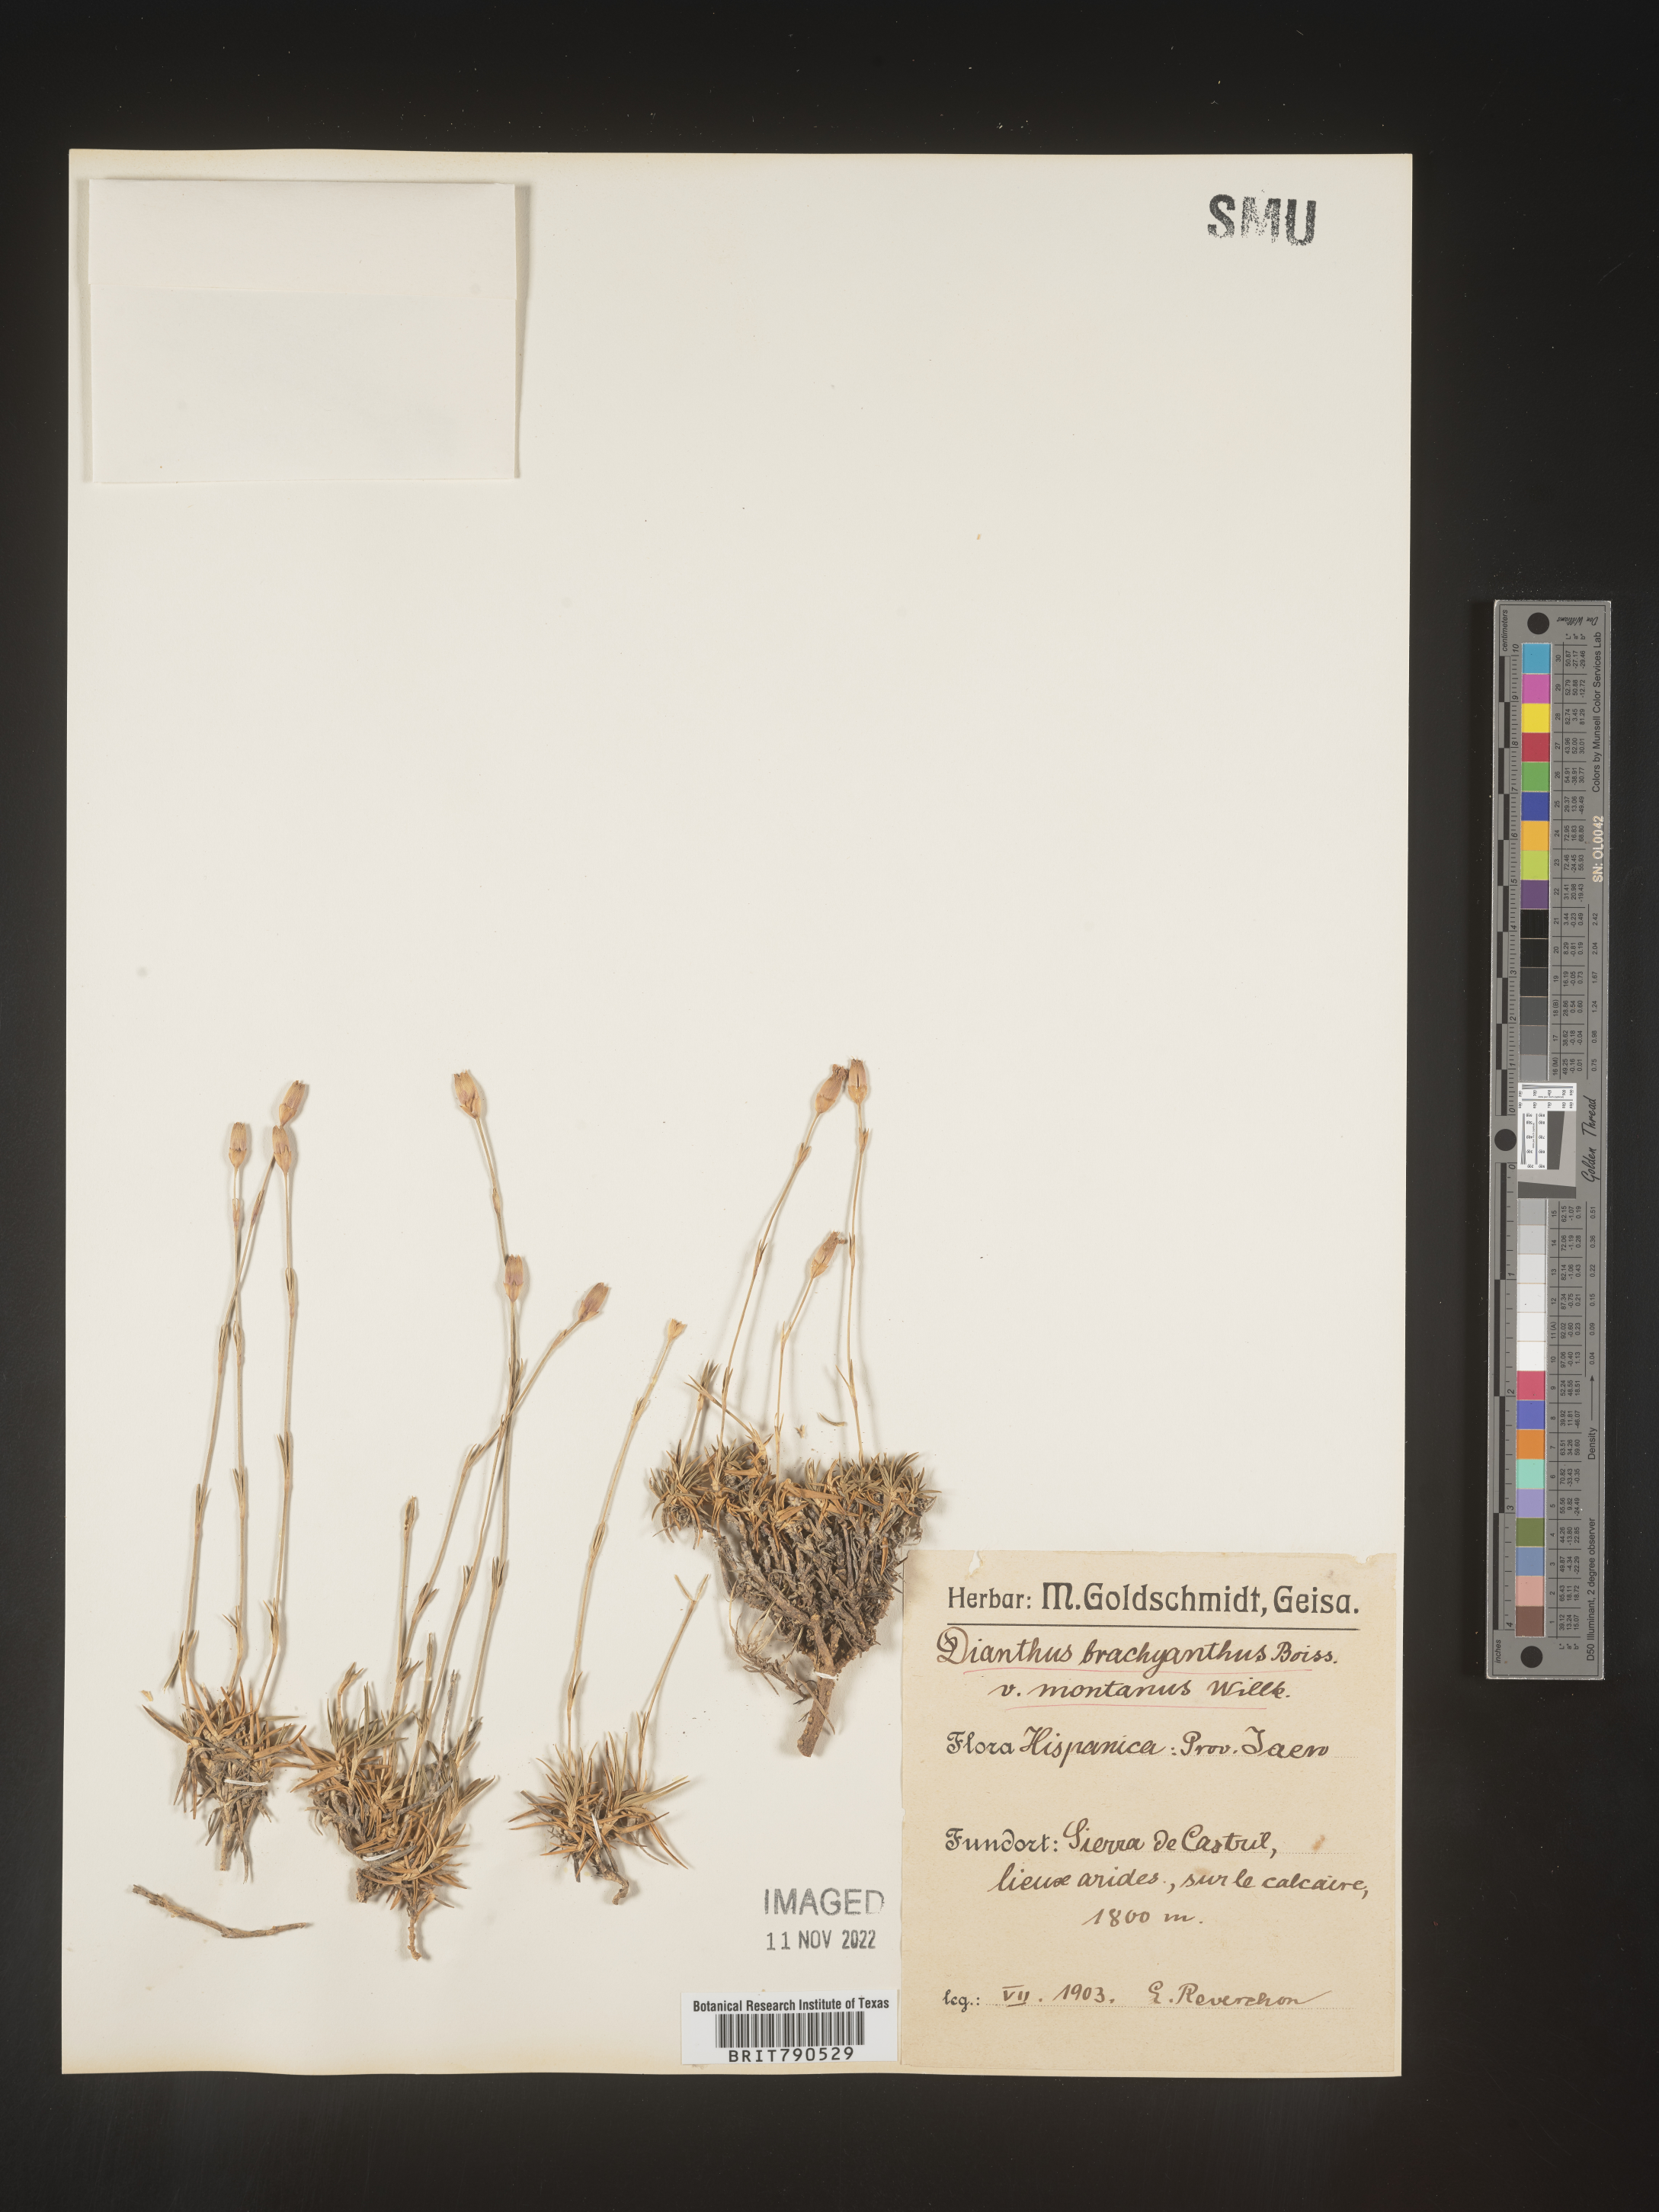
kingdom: Plantae
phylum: Tracheophyta
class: Magnoliopsida
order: Caryophyllales
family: Caryophyllaceae
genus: Dianthus
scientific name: Dianthus
